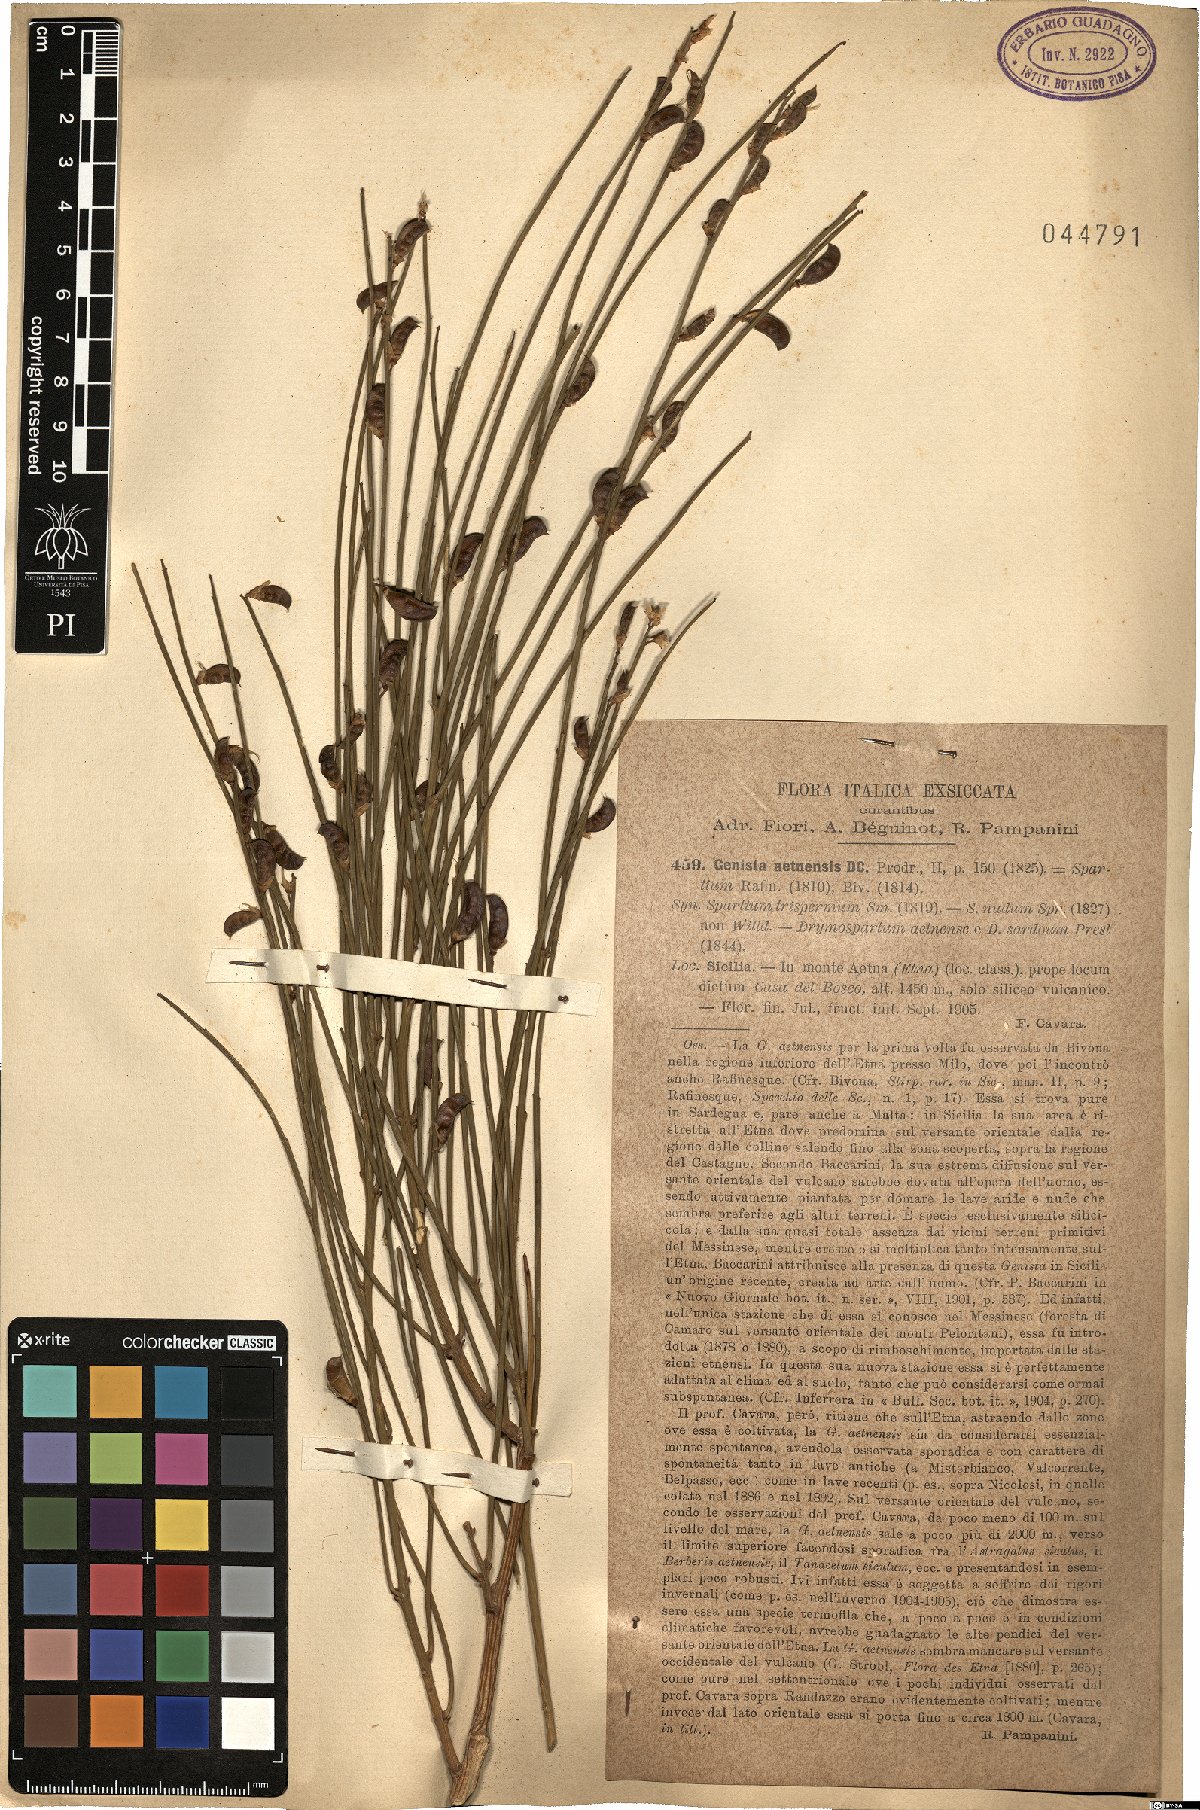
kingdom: Plantae
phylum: Tracheophyta
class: Magnoliopsida
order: Fabales
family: Fabaceae
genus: Genista
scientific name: Genista aetnensis
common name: Mount etna broom
